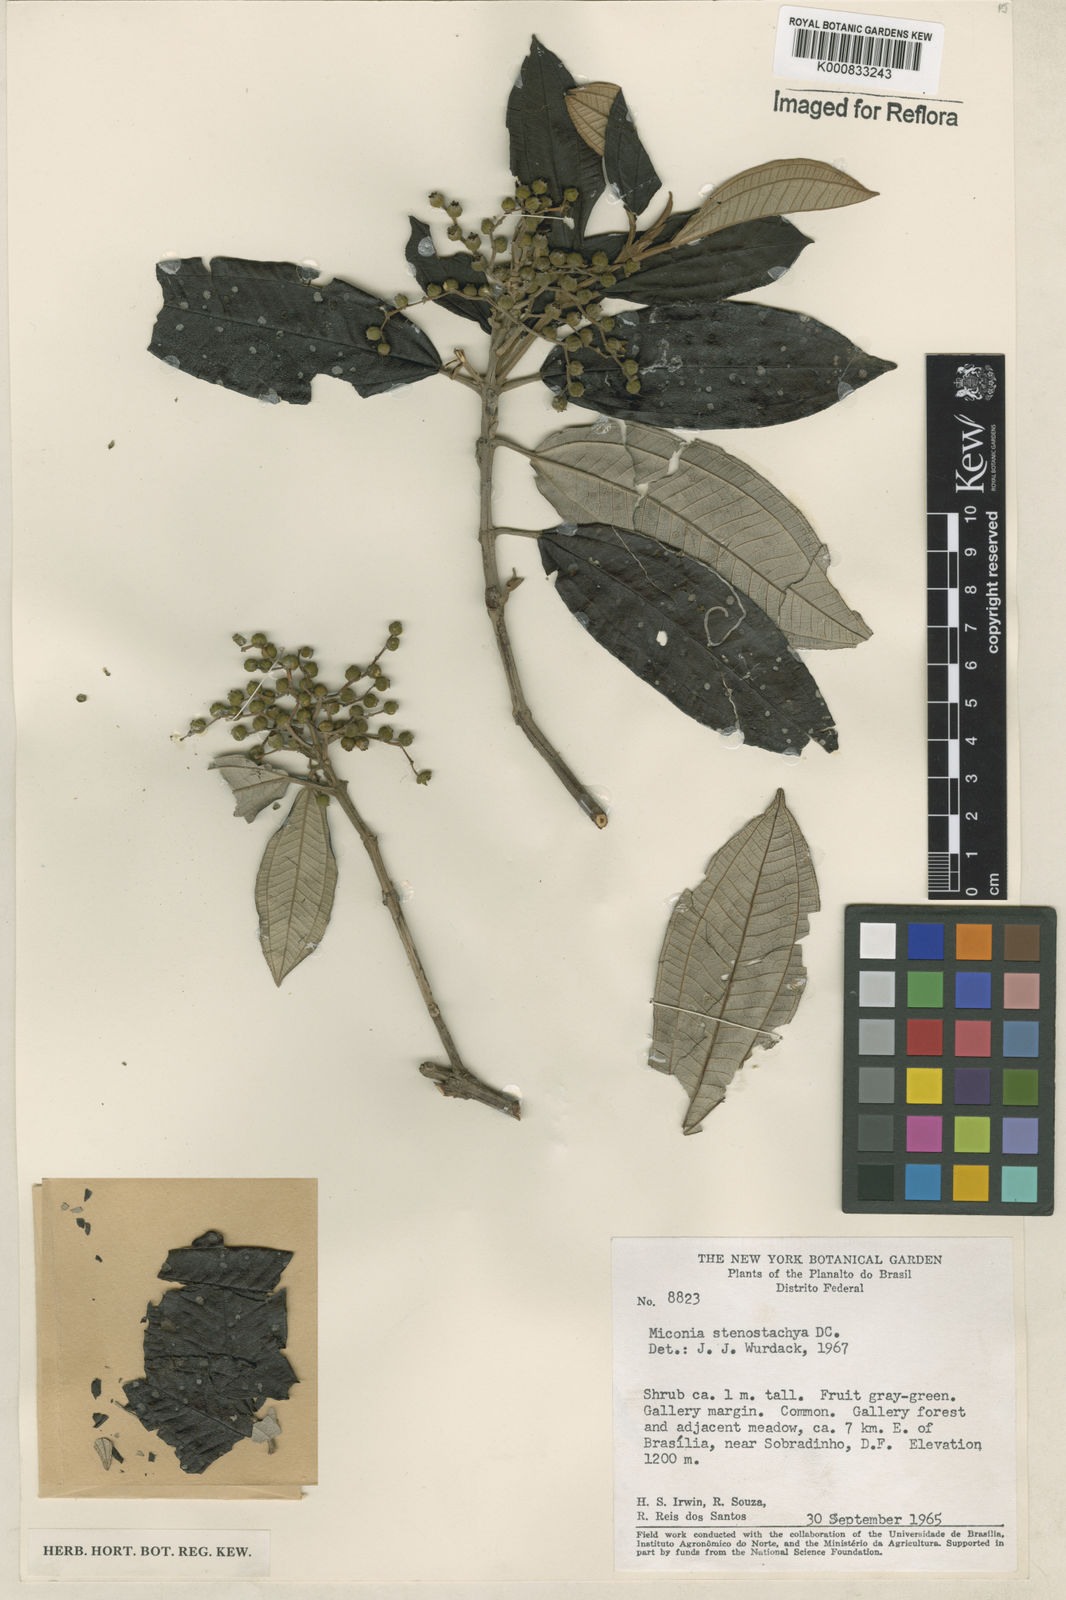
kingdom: Plantae
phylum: Tracheophyta
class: Magnoliopsida
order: Myrtales
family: Melastomataceae
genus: Miconia
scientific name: Miconia stenostachya
